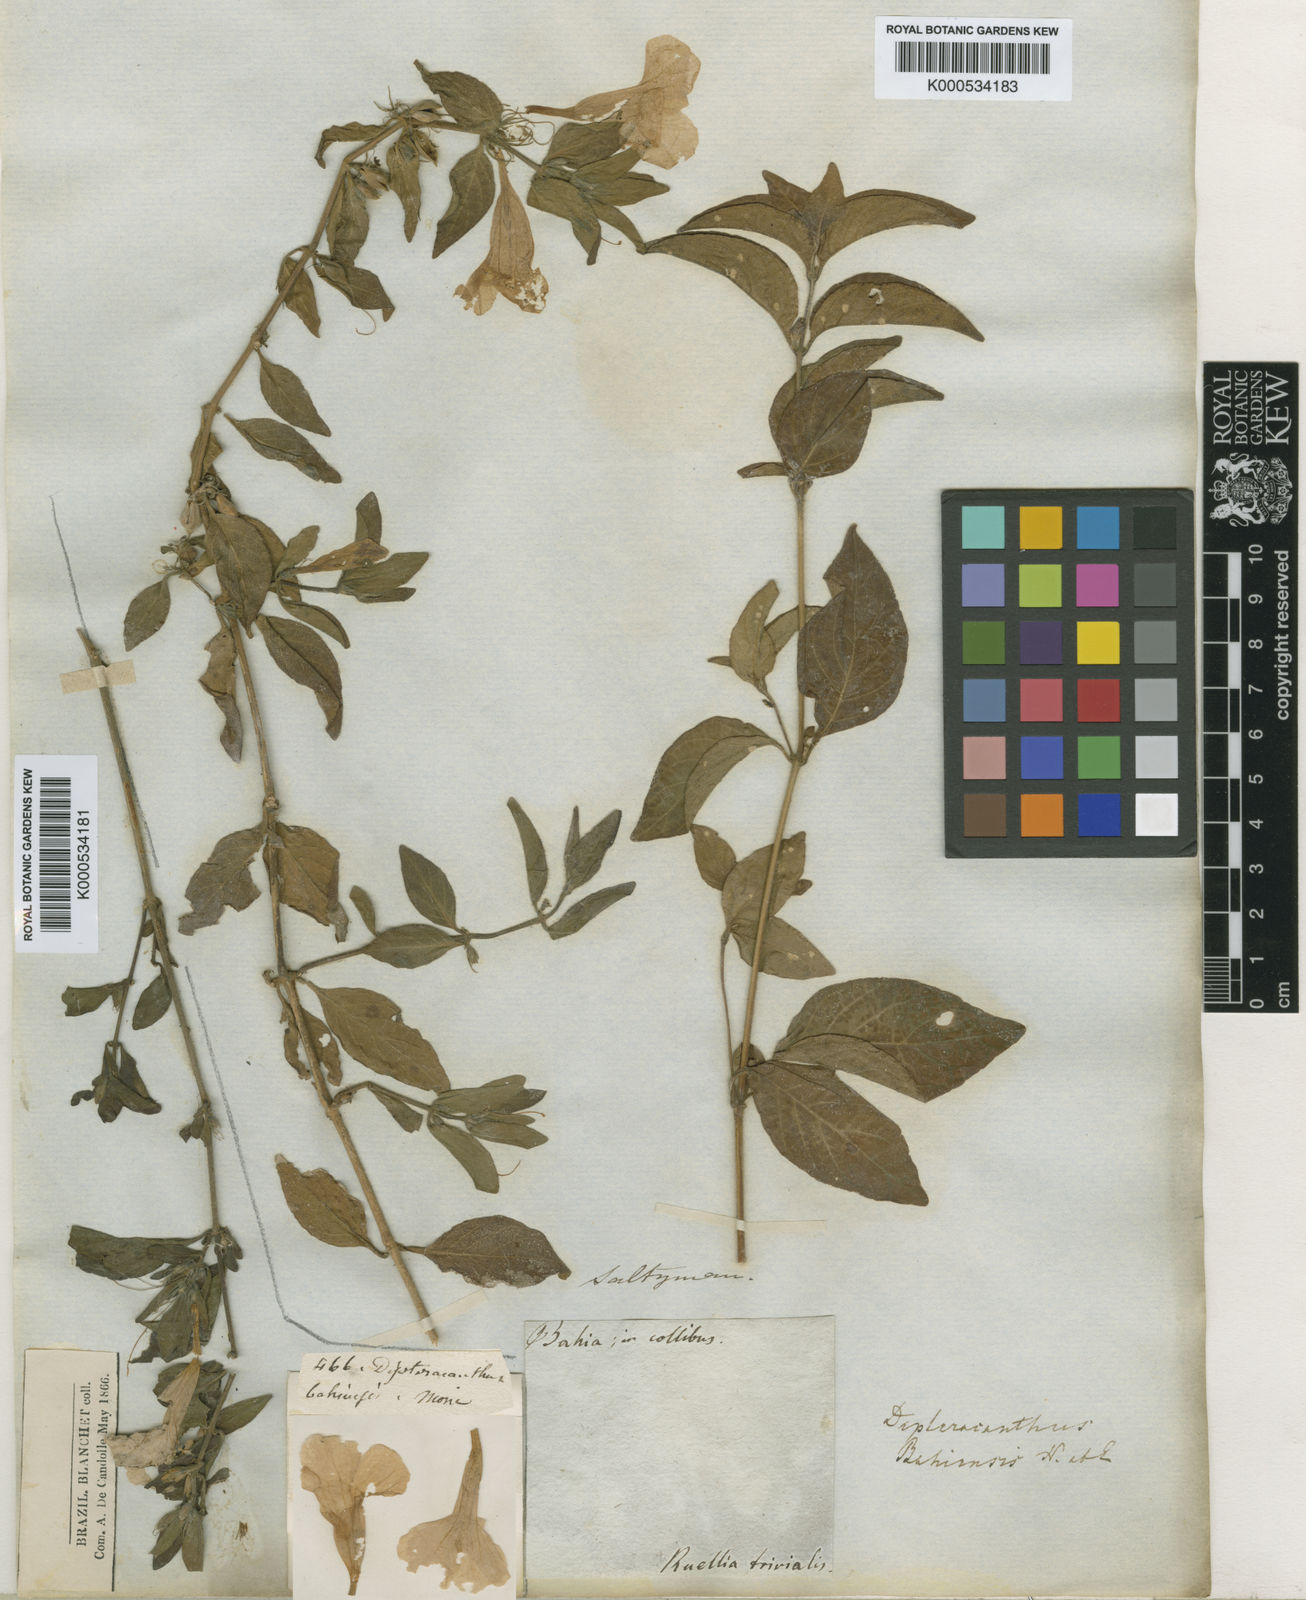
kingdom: Plantae
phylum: Tracheophyta
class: Magnoliopsida
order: Lamiales
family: Acanthaceae
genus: Ruellia
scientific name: Ruellia bahiensis
